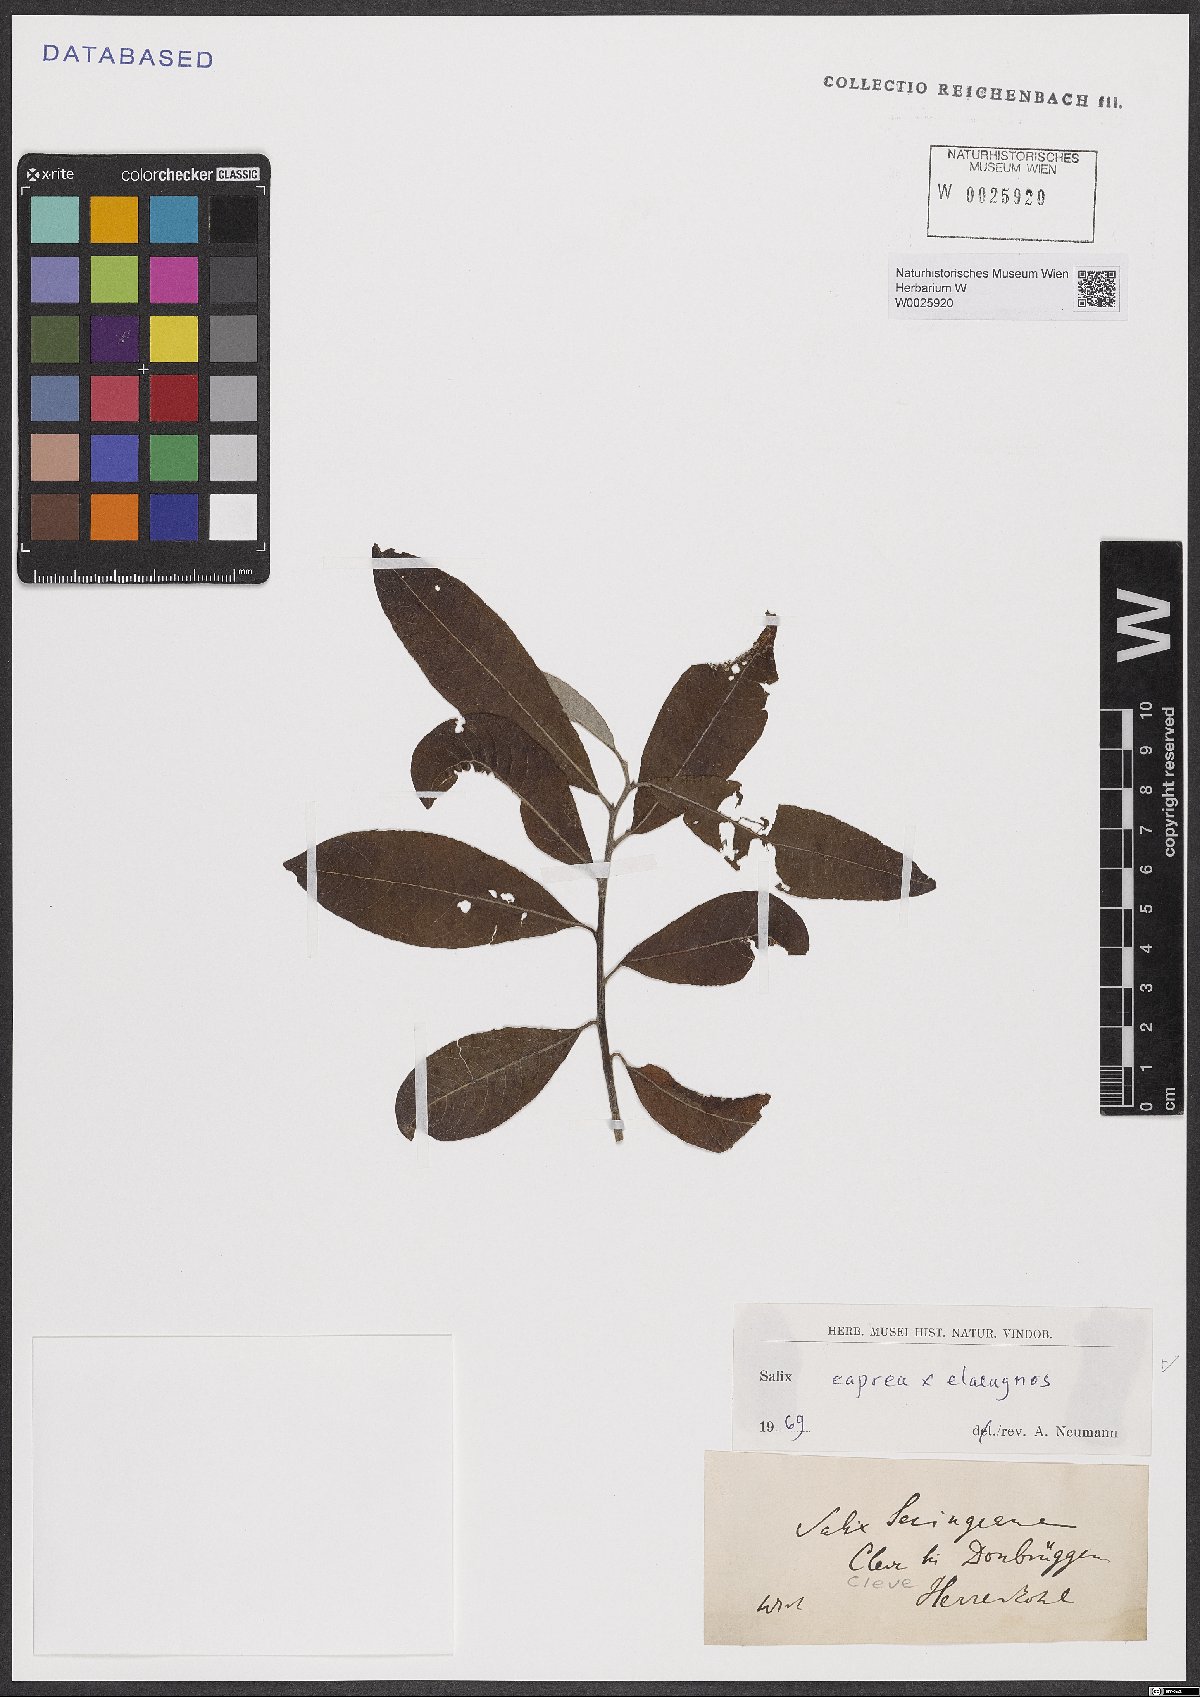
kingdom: Plantae
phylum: Tracheophyta
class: Magnoliopsida
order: Malpighiales
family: Salicaceae
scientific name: Salicaceae
